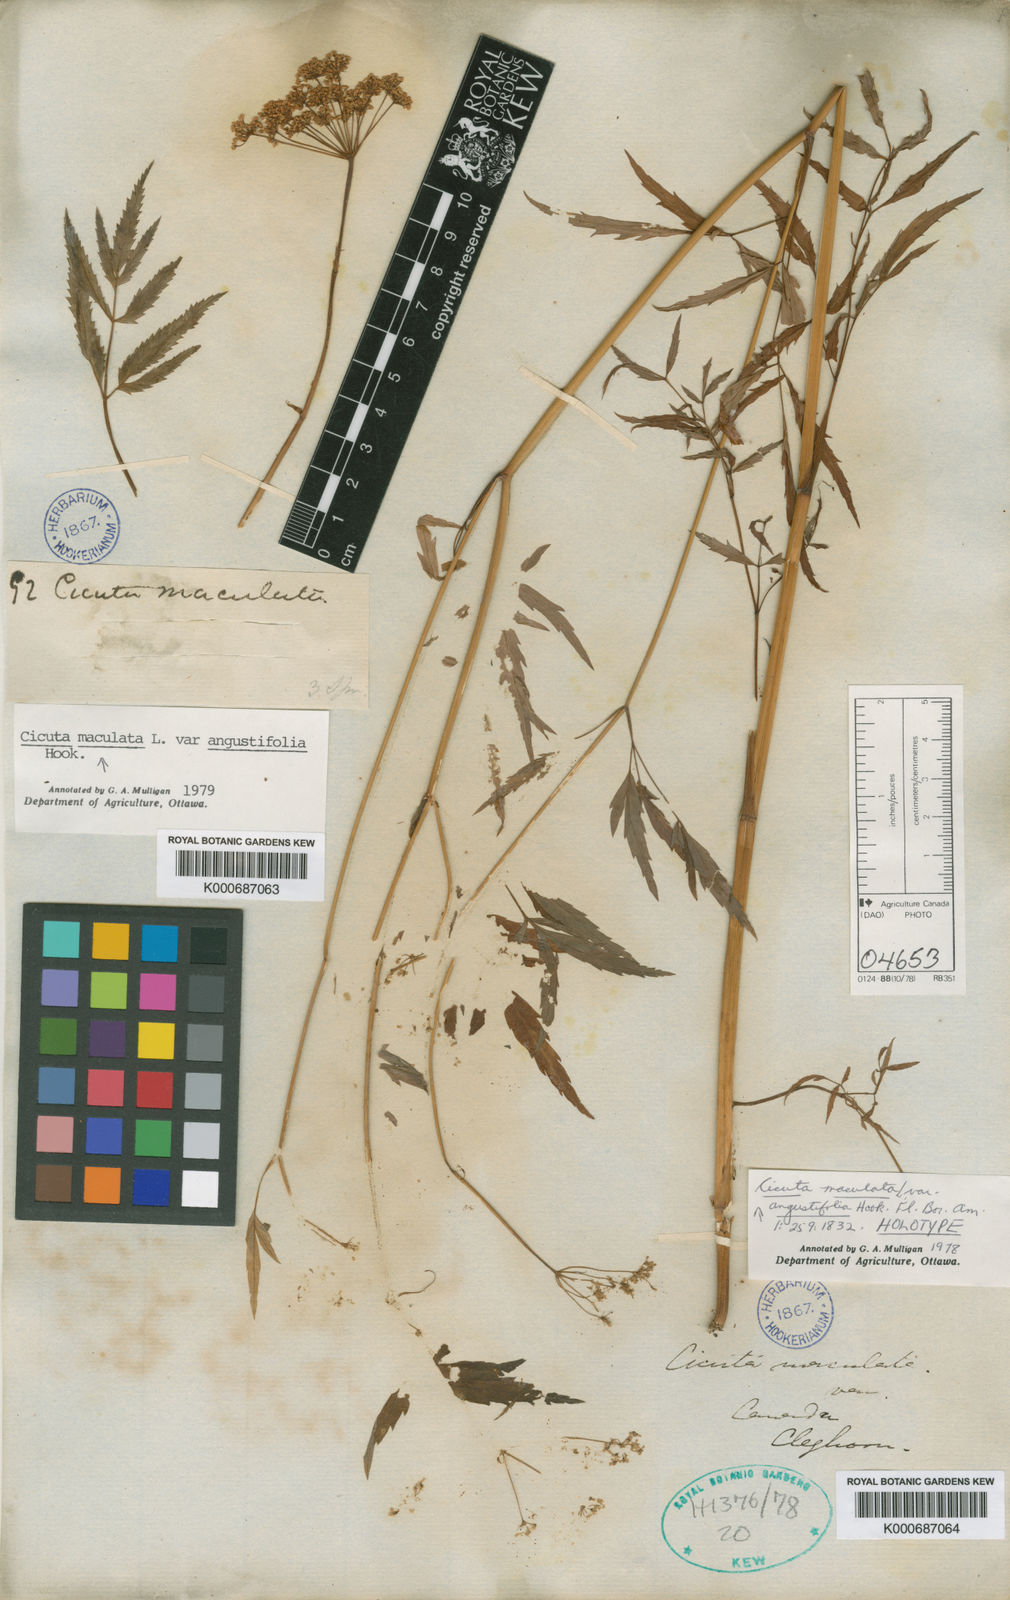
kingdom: Plantae
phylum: Tracheophyta
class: Magnoliopsida
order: Apiales
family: Apiaceae
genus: Cicuta
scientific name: Cicuta maculata
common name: Spotted cowbane
